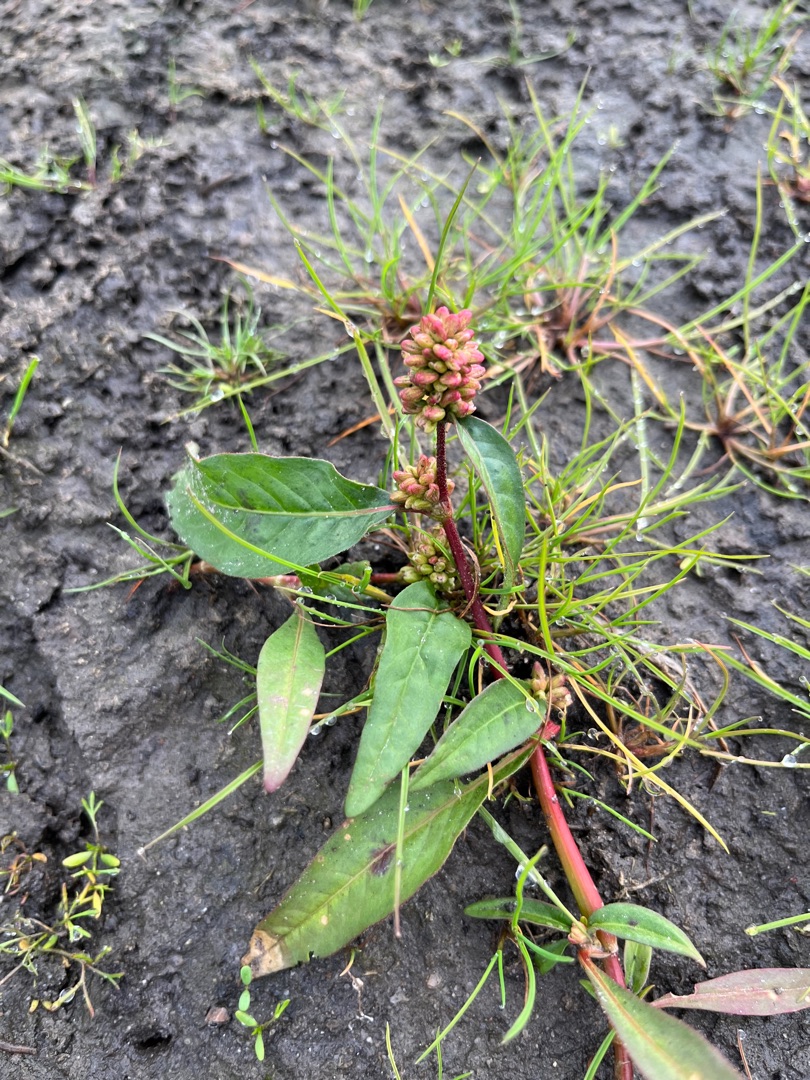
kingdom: Plantae
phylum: Tracheophyta
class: Magnoliopsida
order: Caryophyllales
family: Polygonaceae
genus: Persicaria
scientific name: Persicaria lapathifolia
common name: Knudet pileurt (underart)
